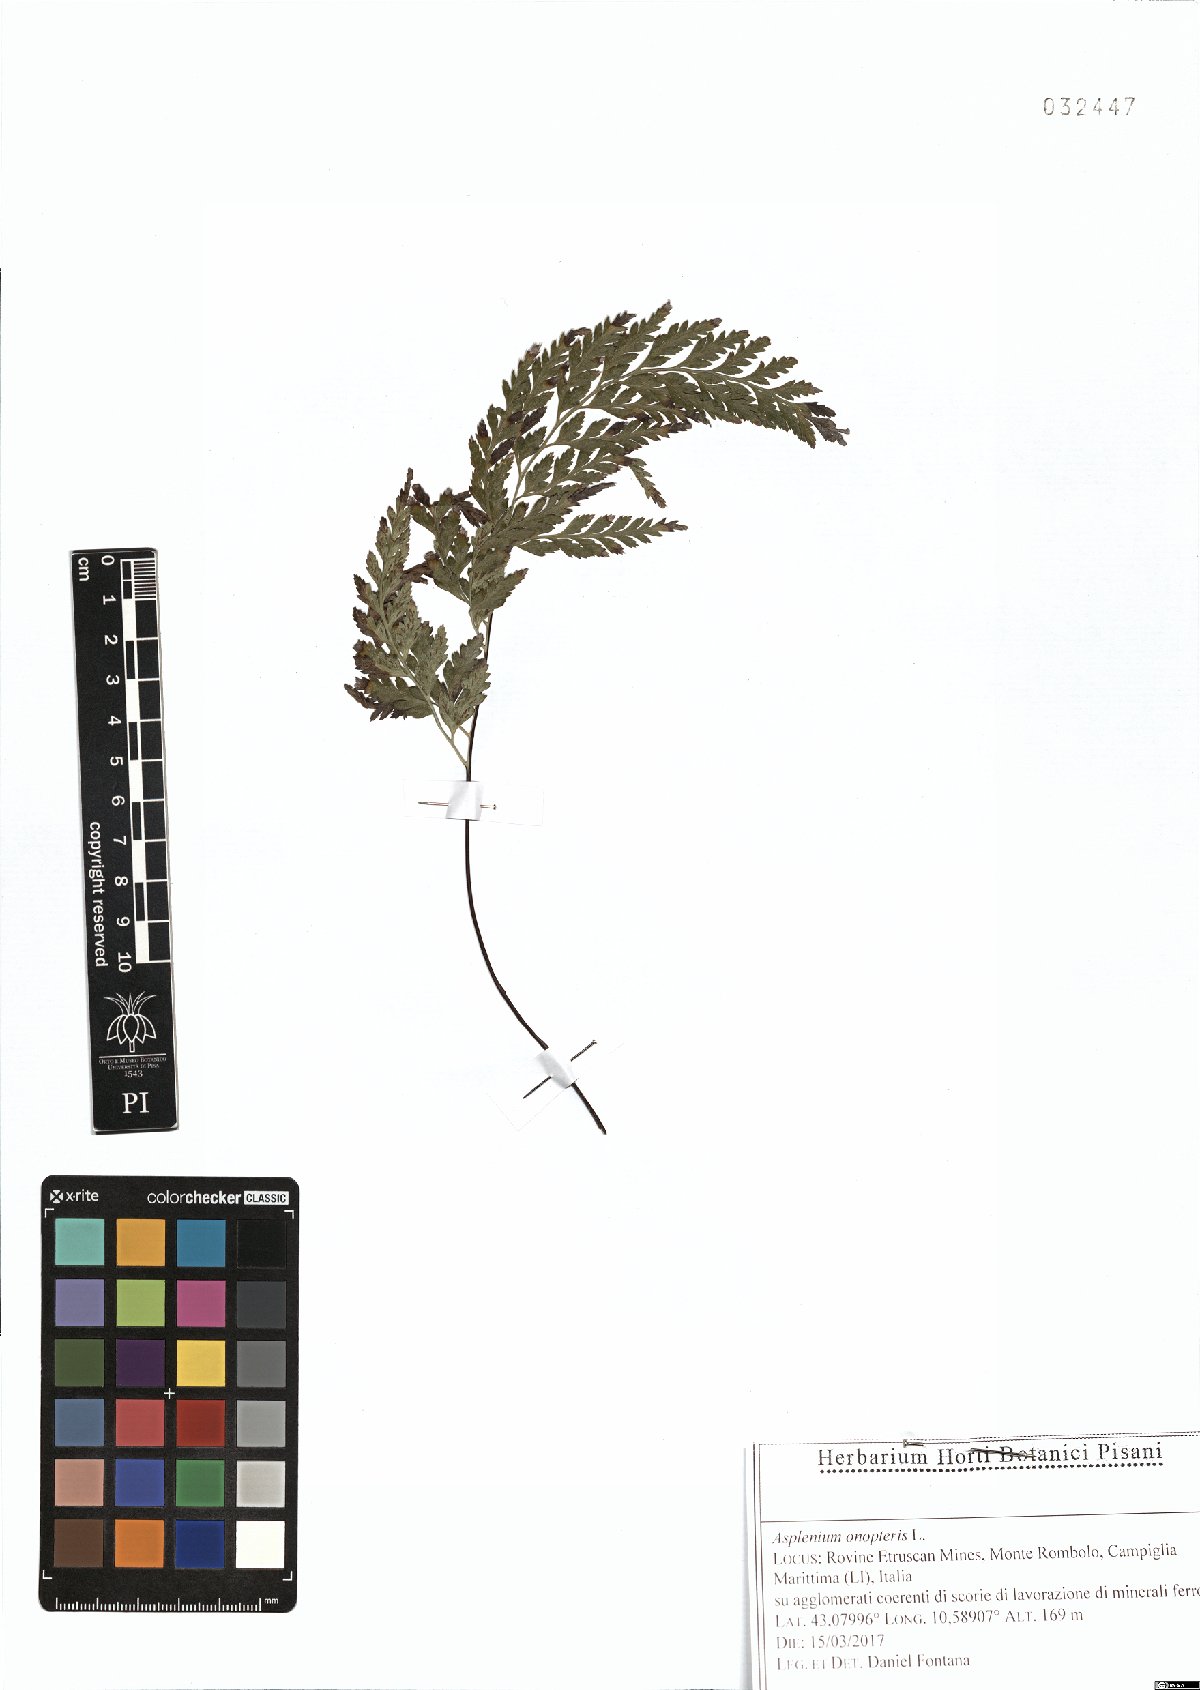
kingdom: Plantae
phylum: Tracheophyta
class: Polypodiopsida
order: Polypodiales
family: Aspleniaceae
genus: Asplenium
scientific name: Asplenium onopteris
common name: Irish spleenwort
